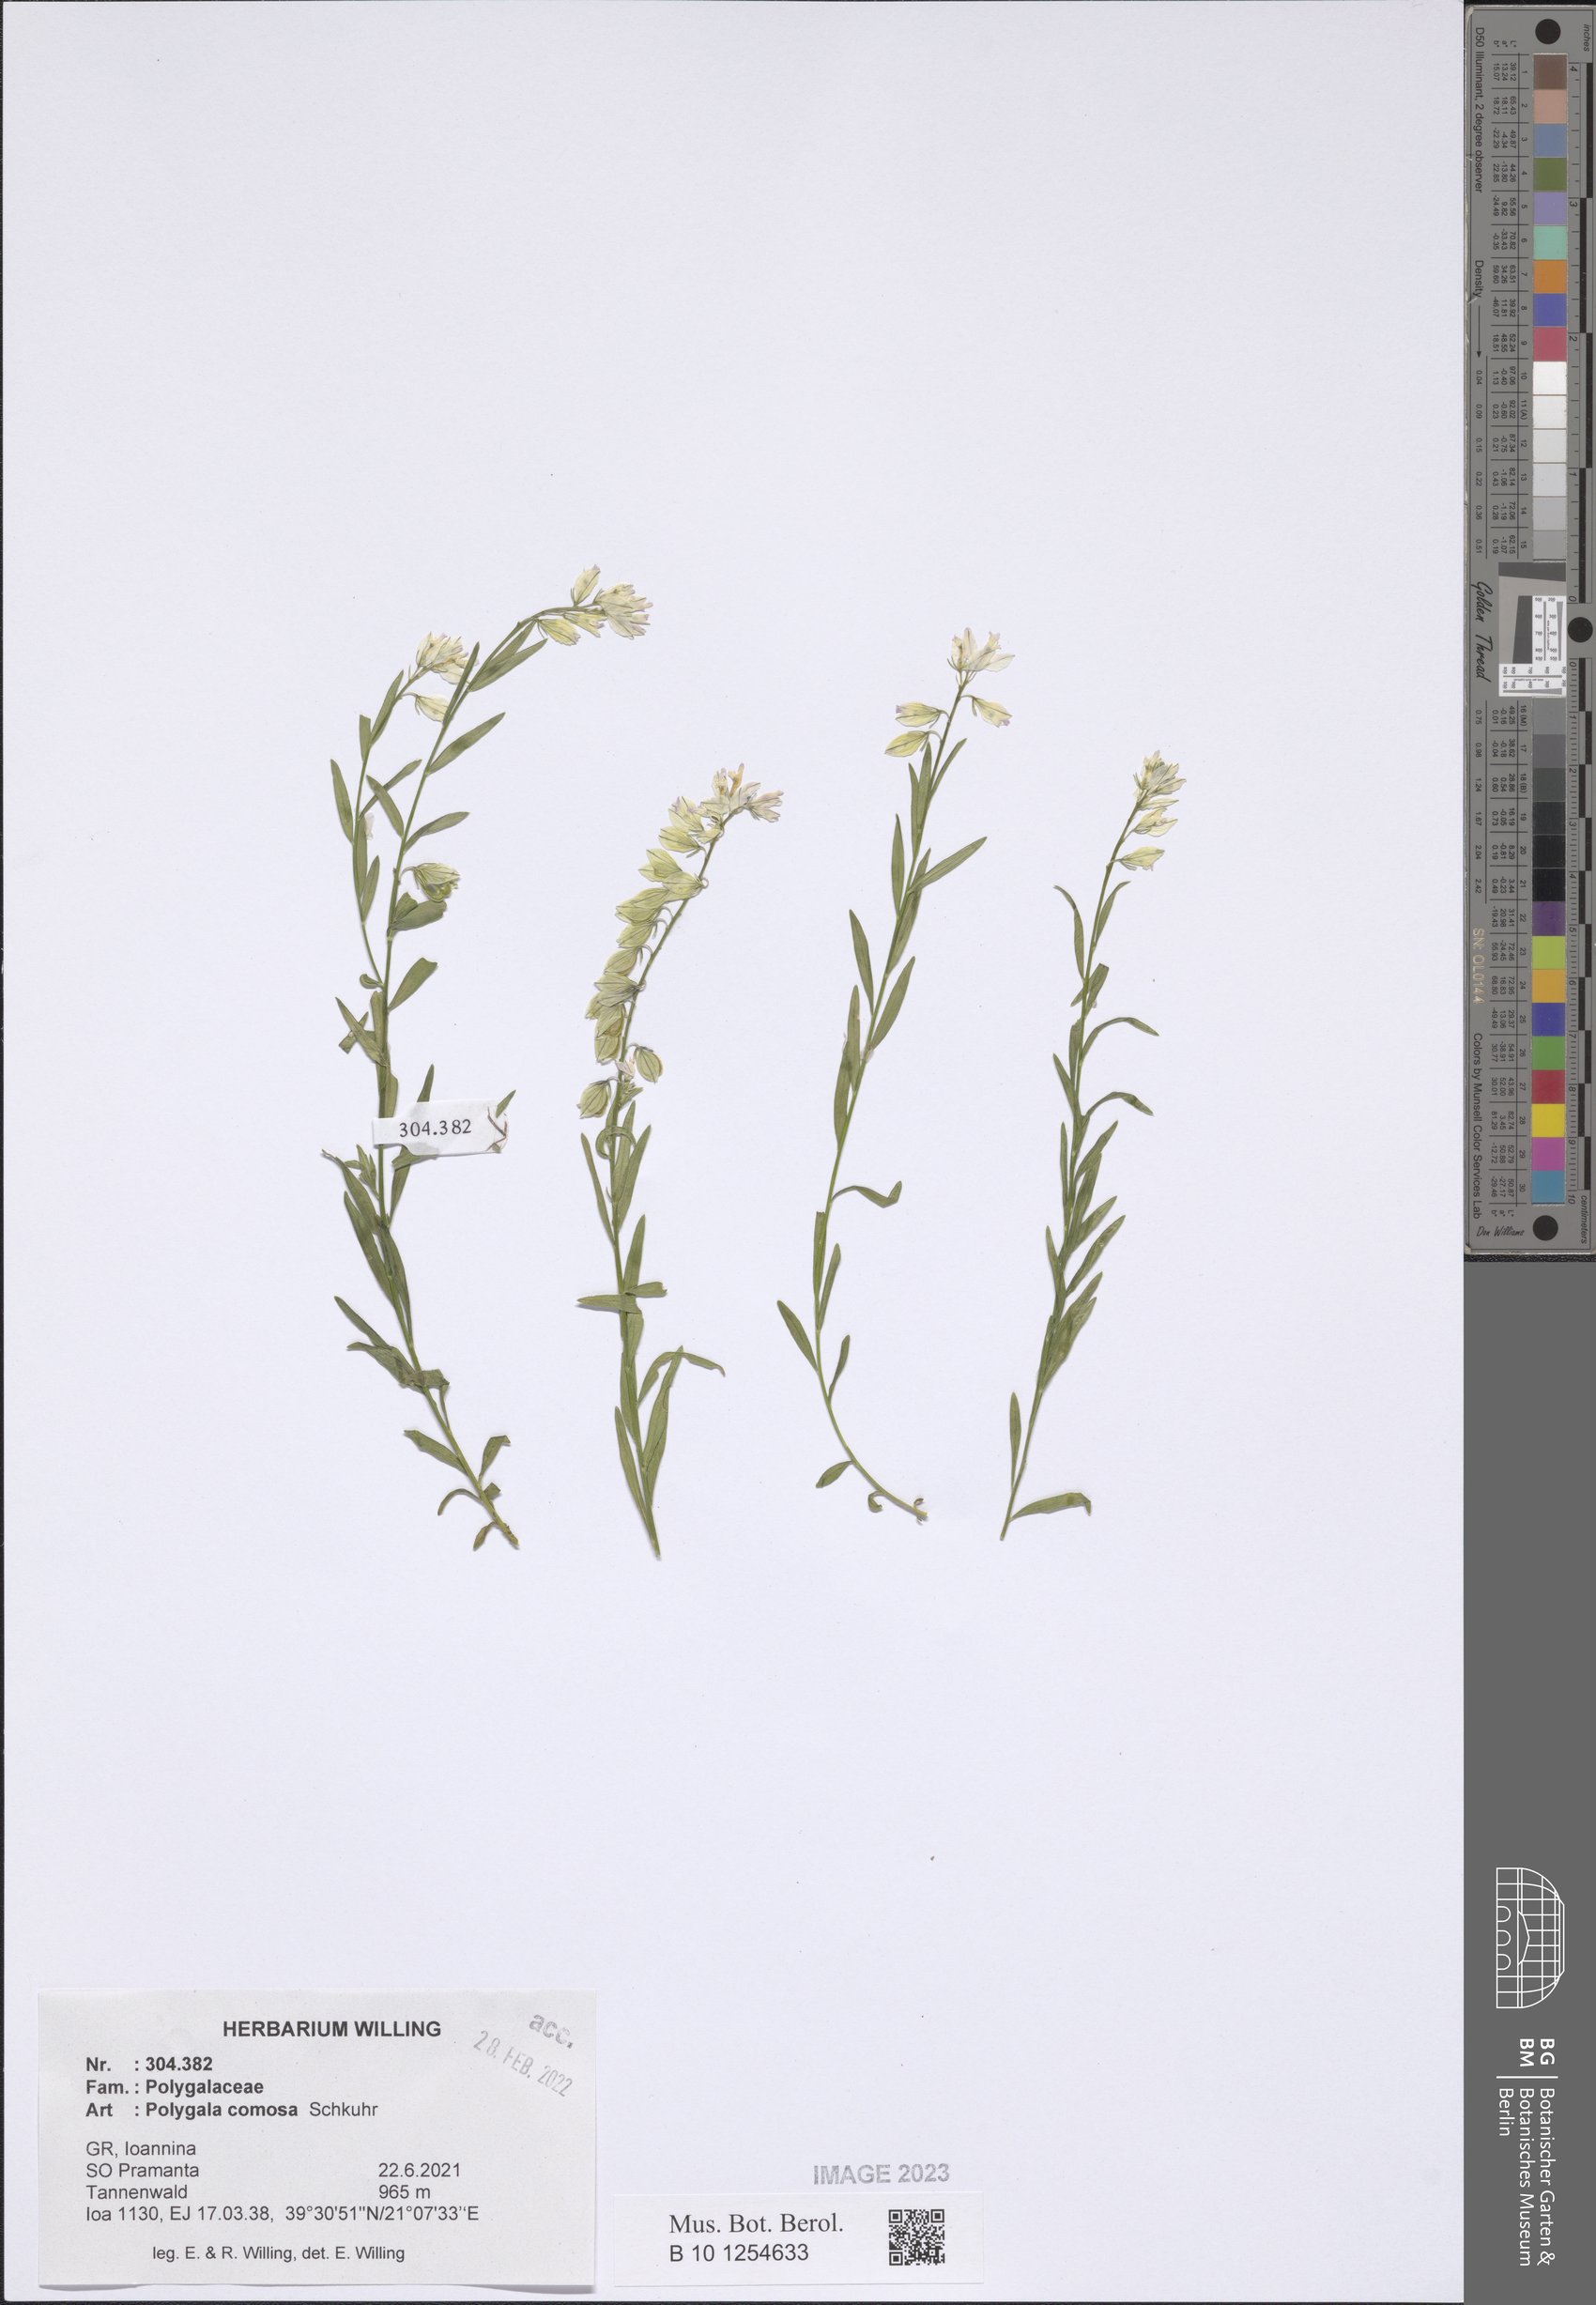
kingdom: Plantae
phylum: Tracheophyta
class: Magnoliopsida
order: Fabales
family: Polygalaceae
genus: Polygala
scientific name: Polygala comosa
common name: Tufted milkwort
